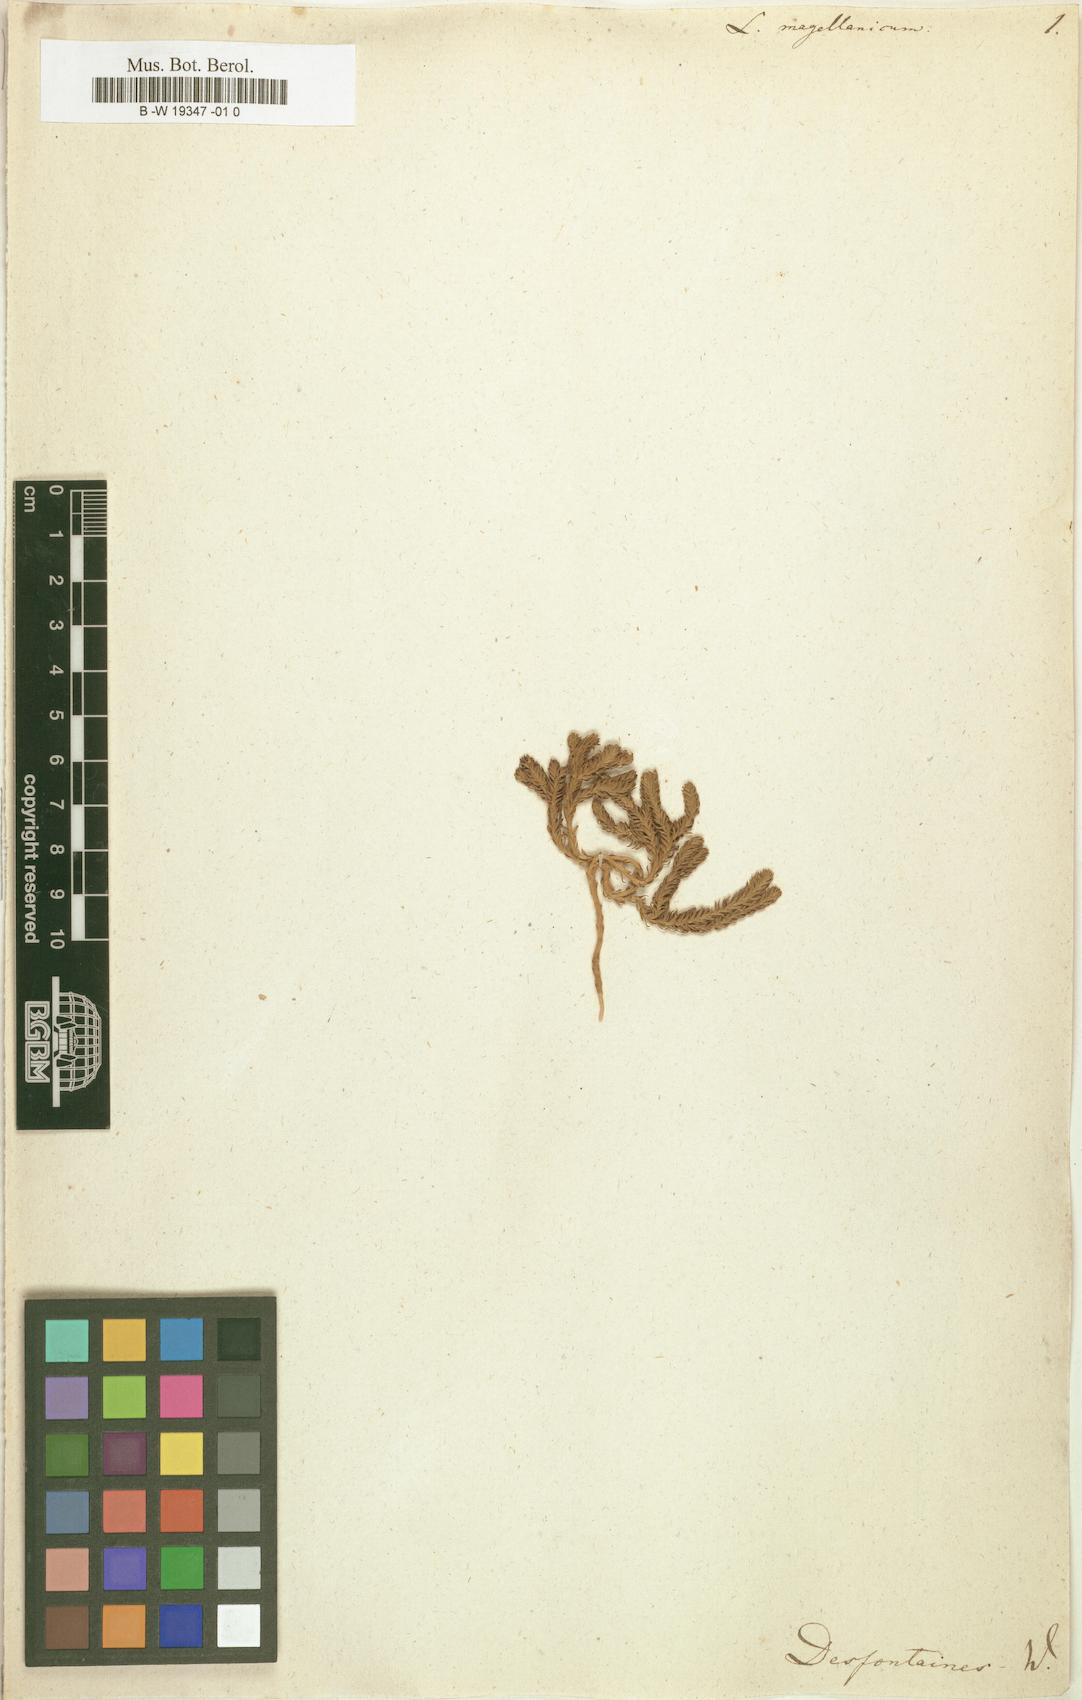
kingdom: Plantae
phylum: Tracheophyta
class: Lycopodiopsida
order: Lycopodiales
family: Lycopodiaceae
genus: Austrolycopodium
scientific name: Austrolycopodium magellanicum
